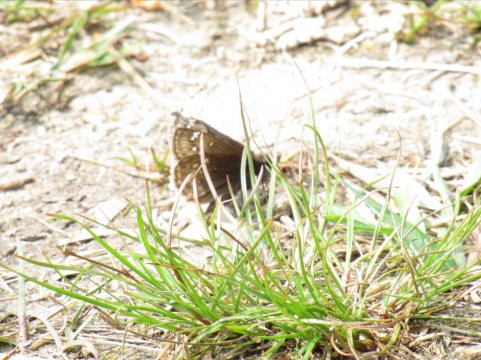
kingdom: Animalia
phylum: Arthropoda
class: Insecta
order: Lepidoptera
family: Hesperiidae
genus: Gesta
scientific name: Gesta
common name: Juvenal's Duskywing
